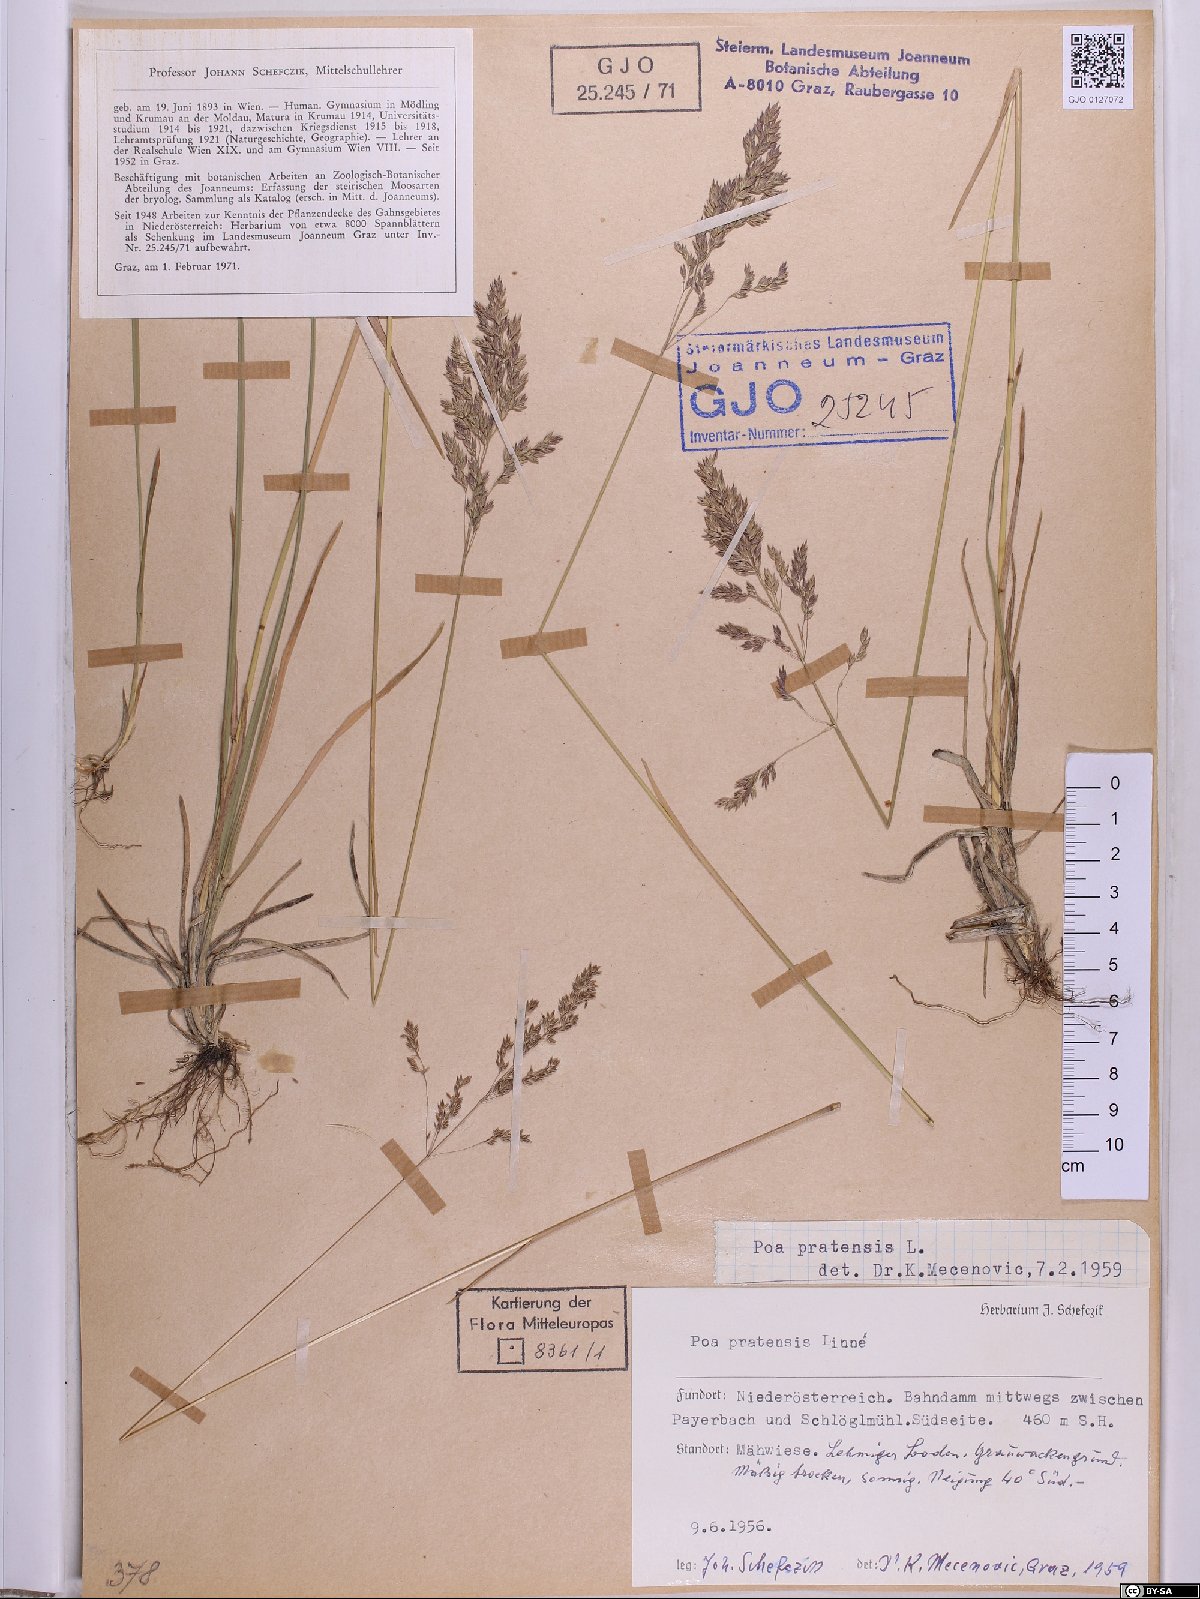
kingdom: Plantae
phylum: Tracheophyta
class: Liliopsida
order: Poales
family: Poaceae
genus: Poa
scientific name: Poa pratensis
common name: Kentucky bluegrass
